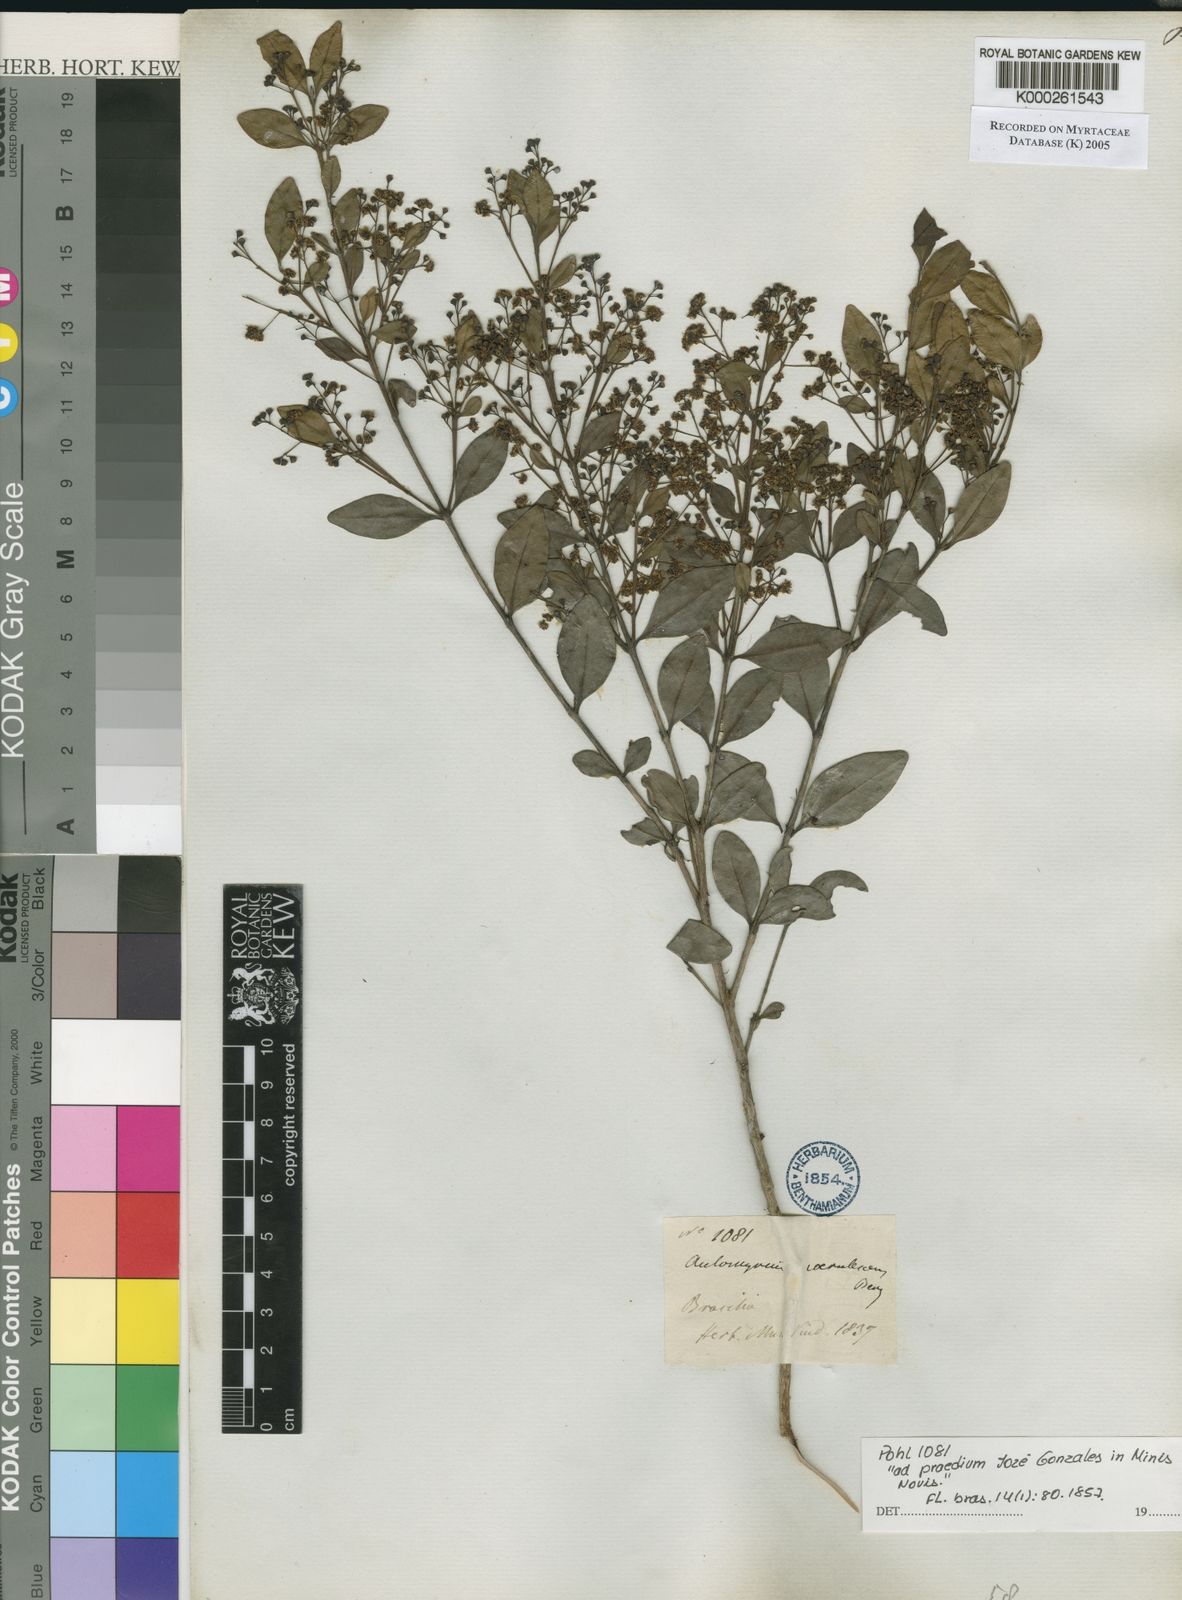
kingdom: Plantae
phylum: Tracheophyta
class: Magnoliopsida
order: Myrtales
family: Myrtaceae
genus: Myrcia
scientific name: Myrcia multiflora
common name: Pedra hume
